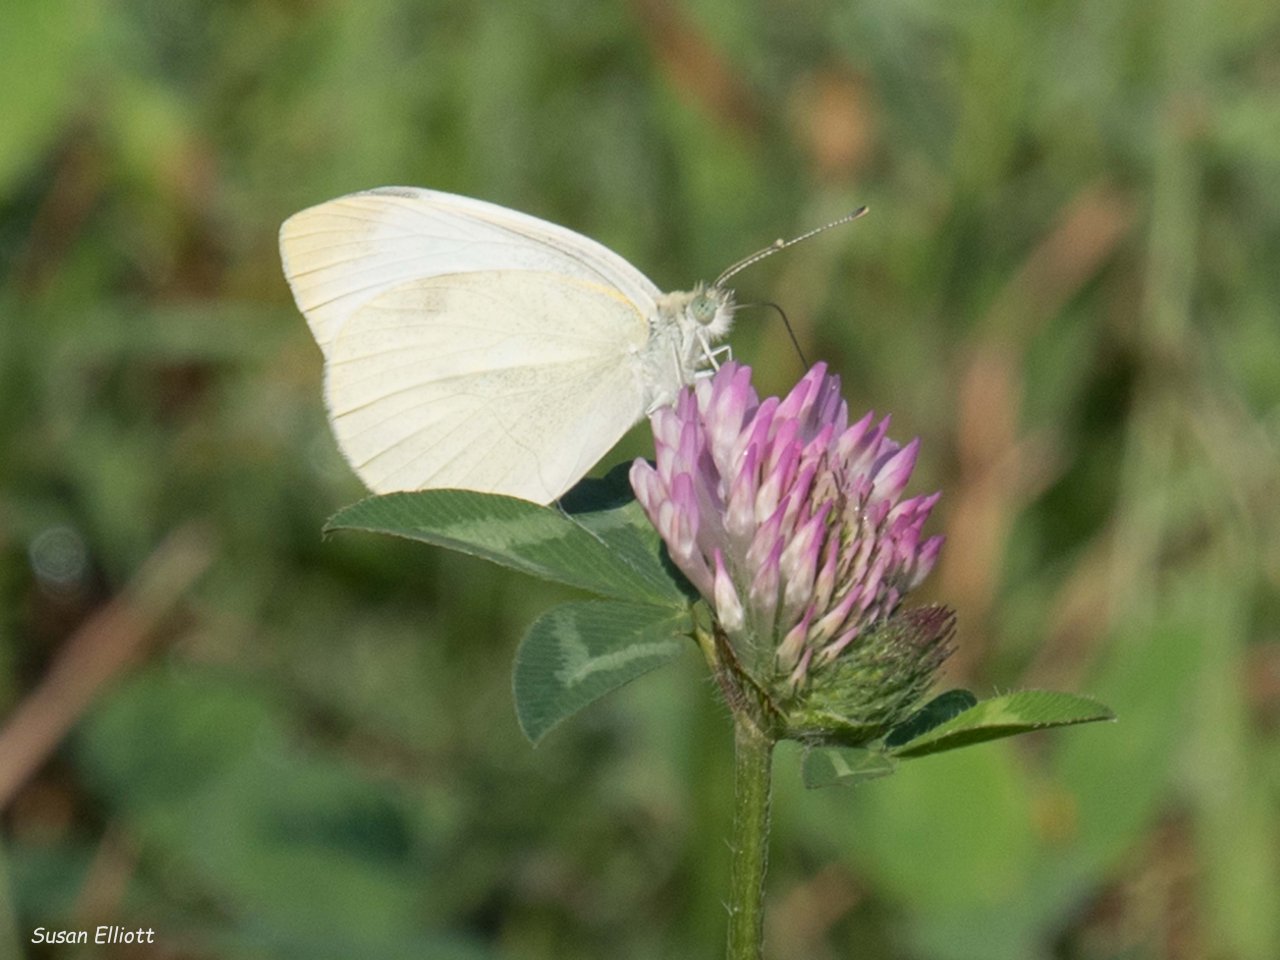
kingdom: Animalia
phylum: Arthropoda
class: Insecta
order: Lepidoptera
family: Pieridae
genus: Pieris
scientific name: Pieris rapae
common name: Cabbage White
